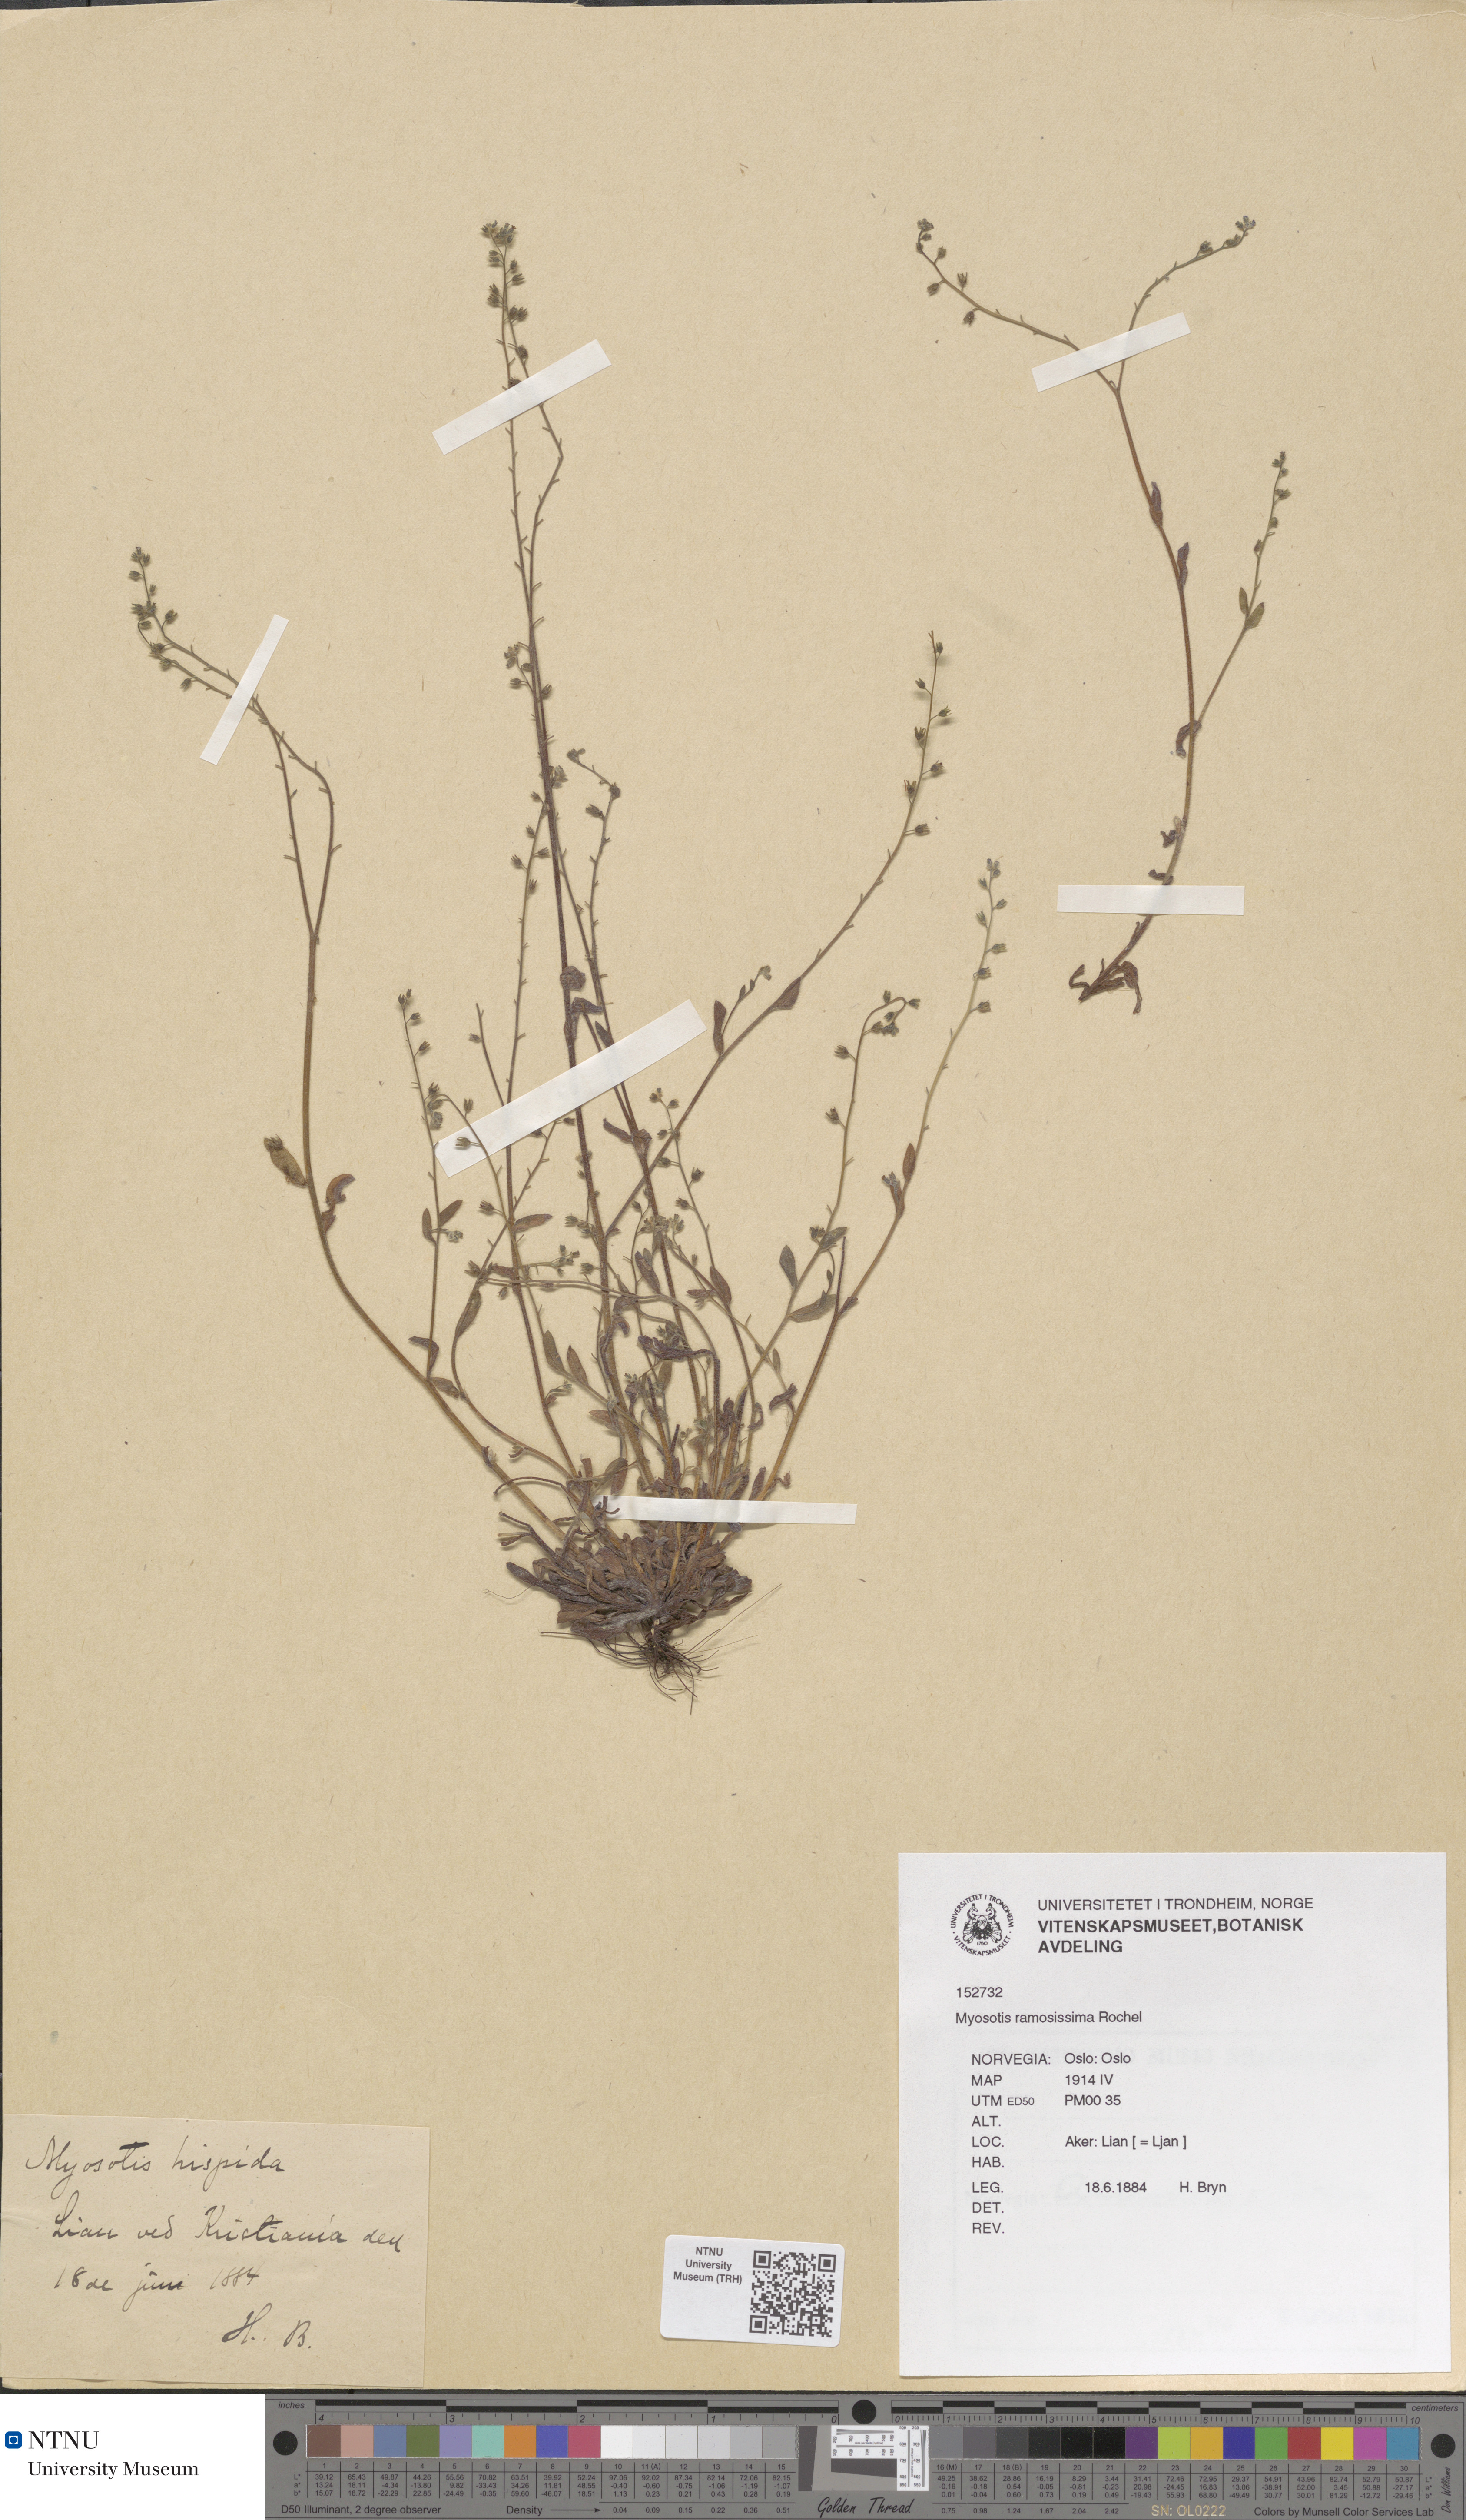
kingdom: Plantae
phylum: Tracheophyta
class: Magnoliopsida
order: Boraginales
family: Boraginaceae
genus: Myosotis
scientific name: Myosotis ramosissima
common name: Early forget-me-not
